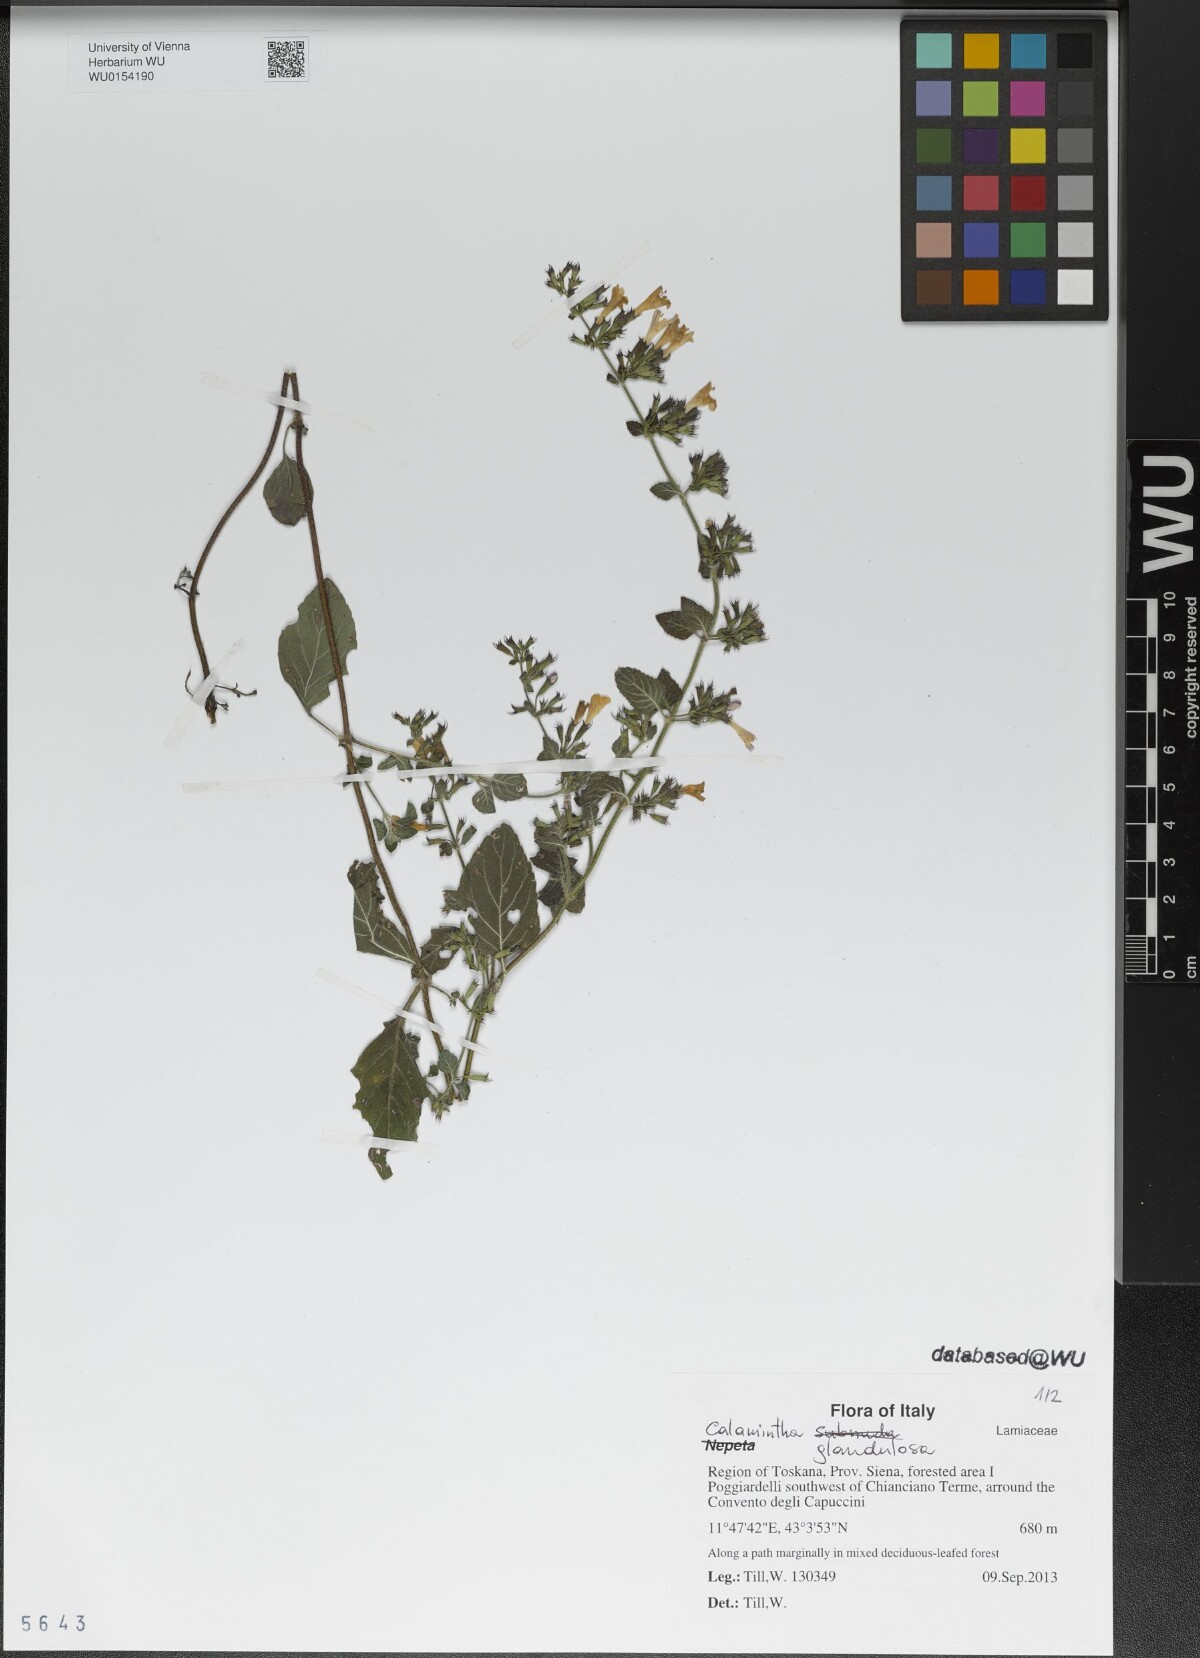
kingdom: Plantae
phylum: Tracheophyta
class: Magnoliopsida
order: Lamiales
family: Lamiaceae
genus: Clinopodium
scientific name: Clinopodium nepeta
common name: Lesser calamint
